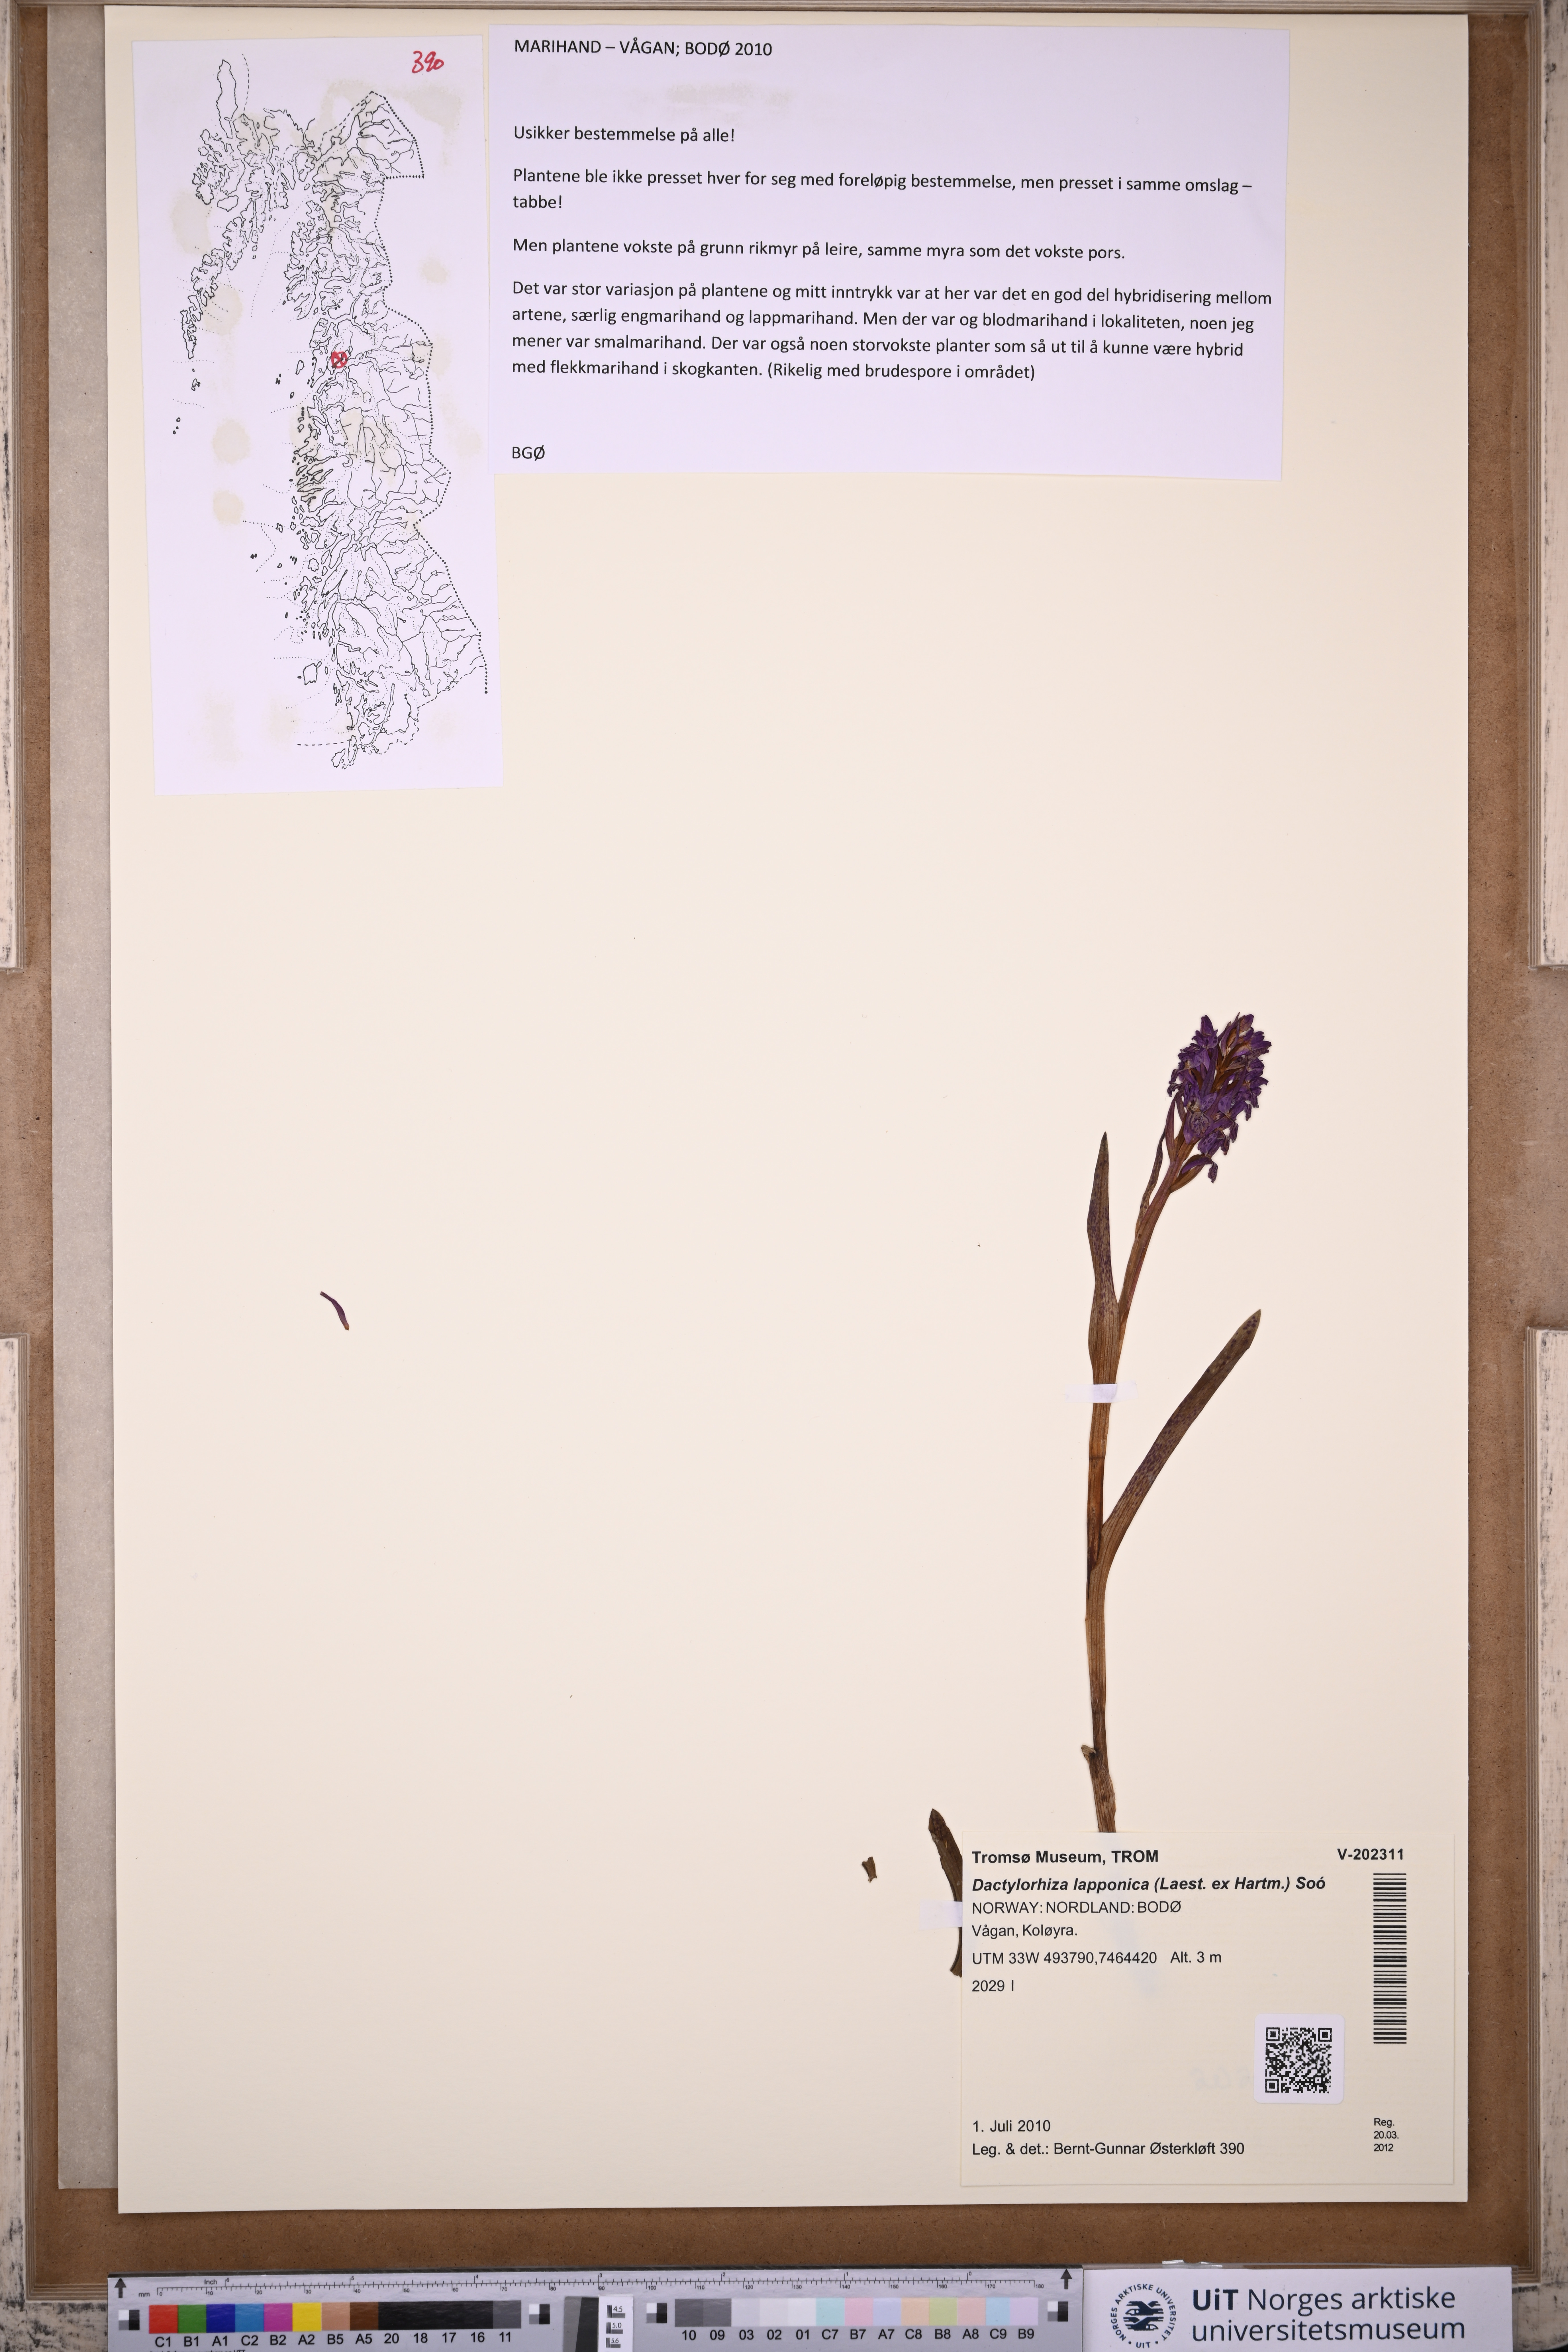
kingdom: Plantae
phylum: Tracheophyta
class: Liliopsida
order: Asparagales
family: Orchidaceae
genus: Dactylorhiza
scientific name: Dactylorhiza majalis
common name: Marsh orchid
